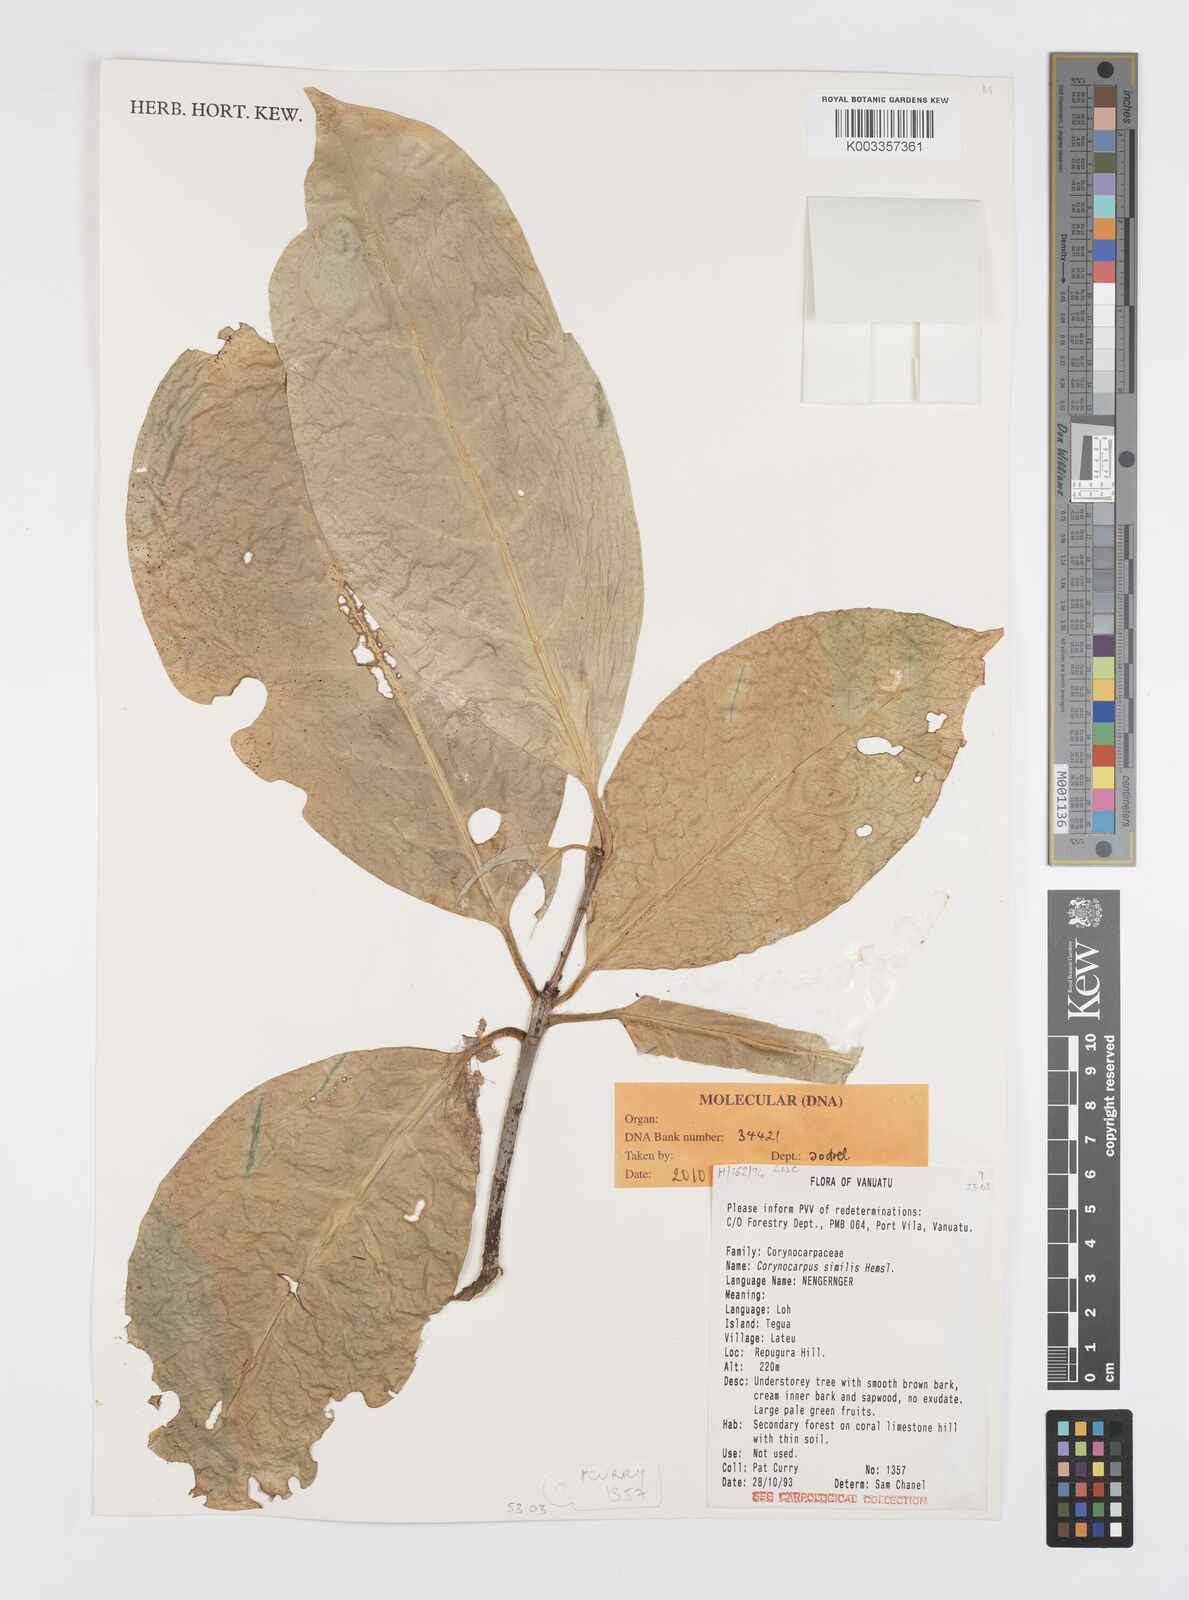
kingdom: Plantae
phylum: Tracheophyta
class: Magnoliopsida
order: Cucurbitales
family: Corynocarpaceae
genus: Corynocarpus
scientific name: Corynocarpus similis
